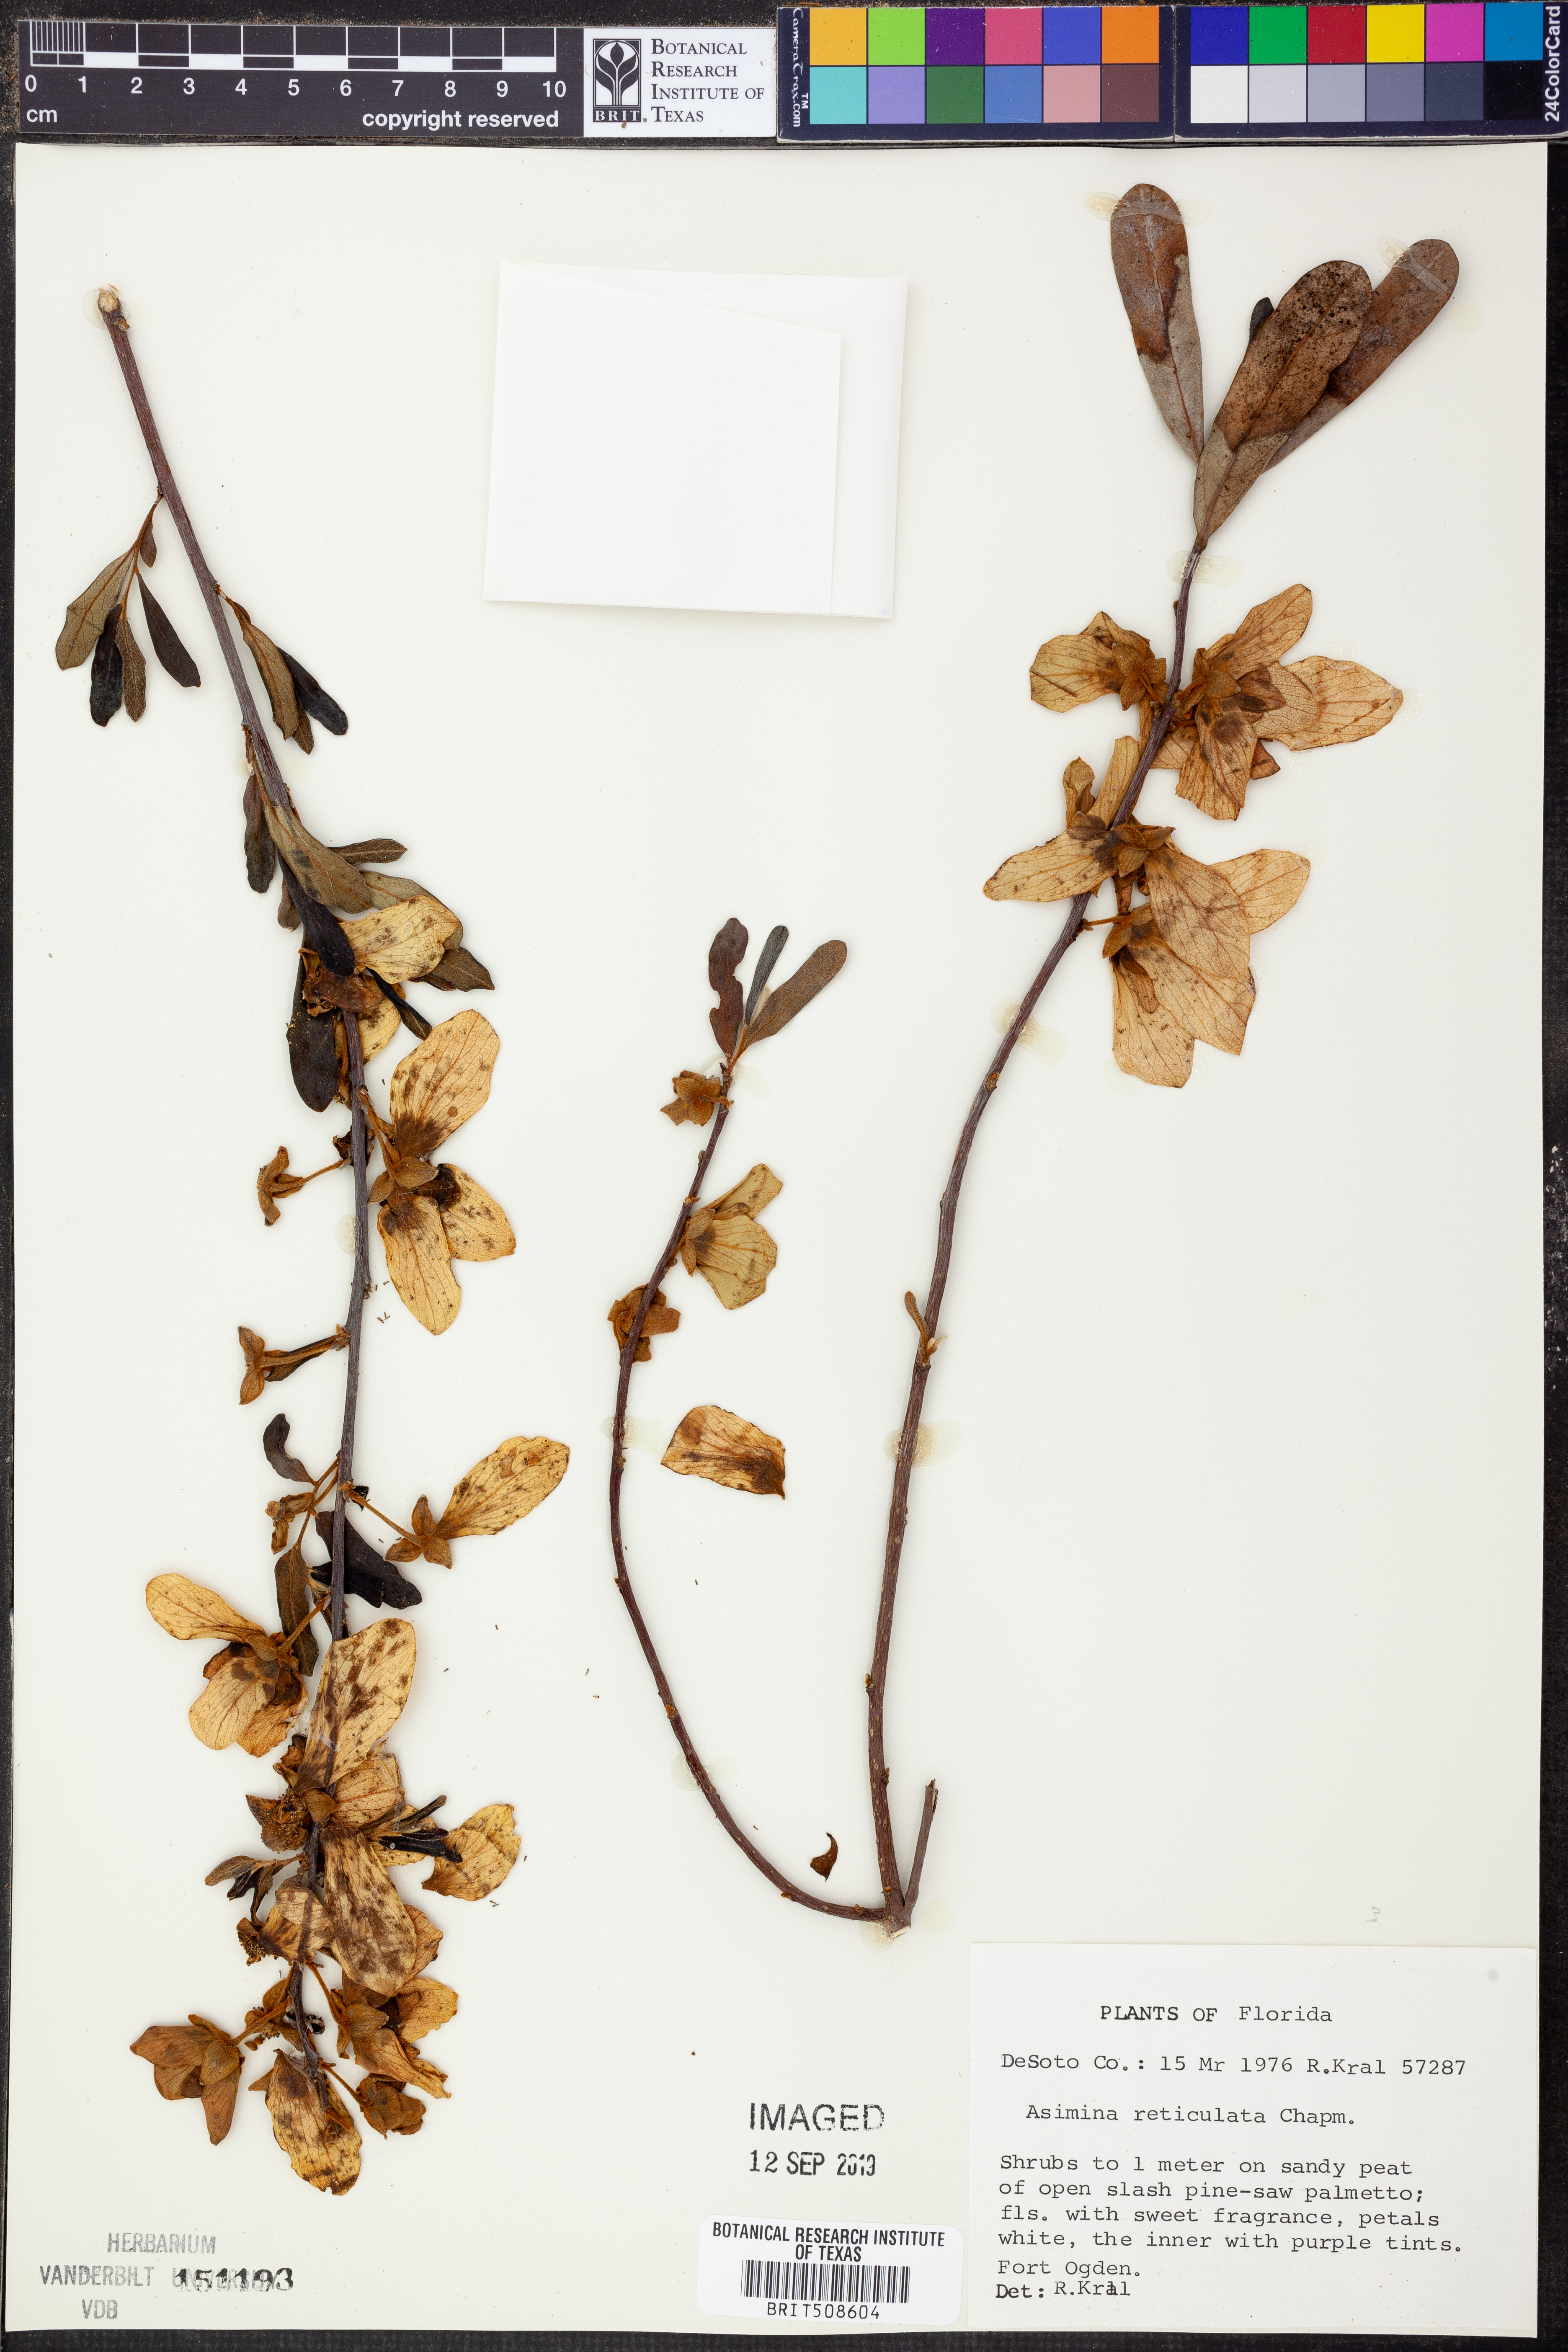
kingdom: Plantae
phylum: Tracheophyta
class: Magnoliopsida
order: Magnoliales
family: Annonaceae
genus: Asimina
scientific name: Asimina reticulata
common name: Flag pawpaw
